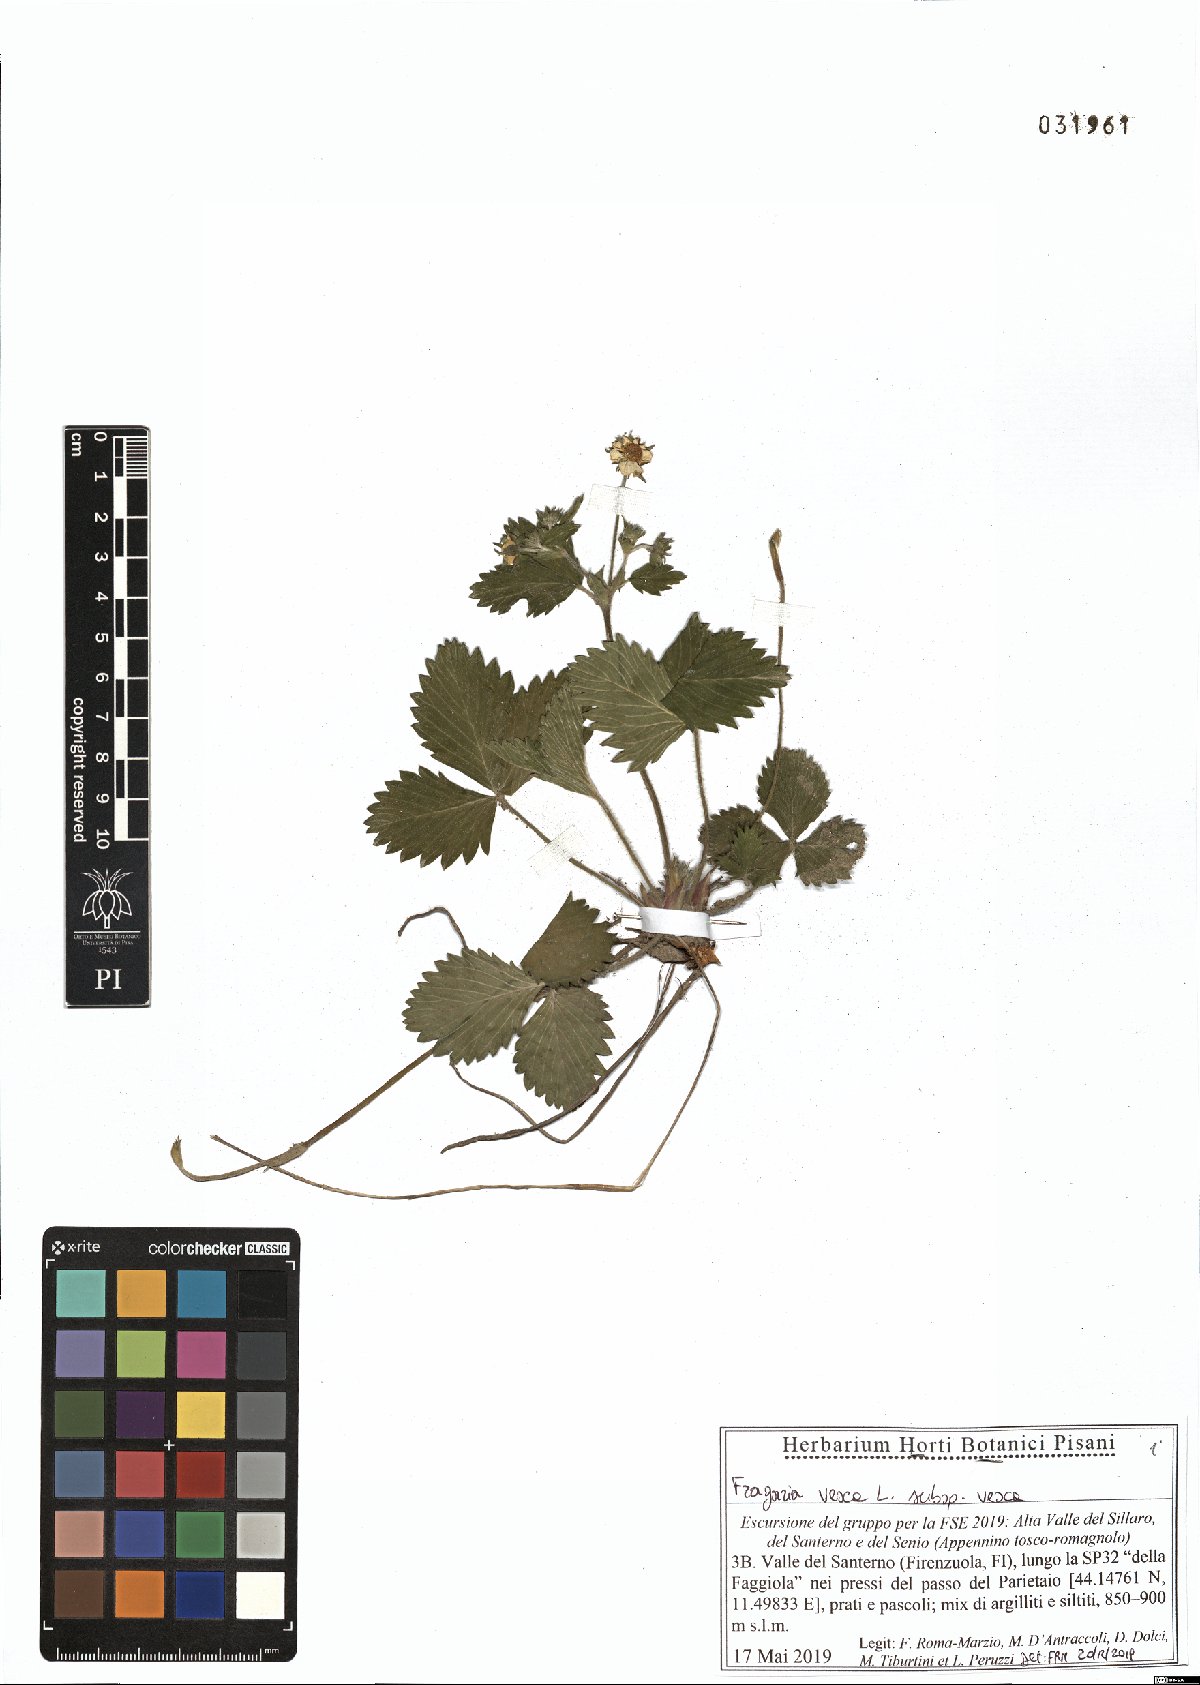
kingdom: Plantae
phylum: Tracheophyta
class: Magnoliopsida
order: Rosales
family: Rosaceae
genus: Fragaria
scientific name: Fragaria vesca
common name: Wild strawberry
